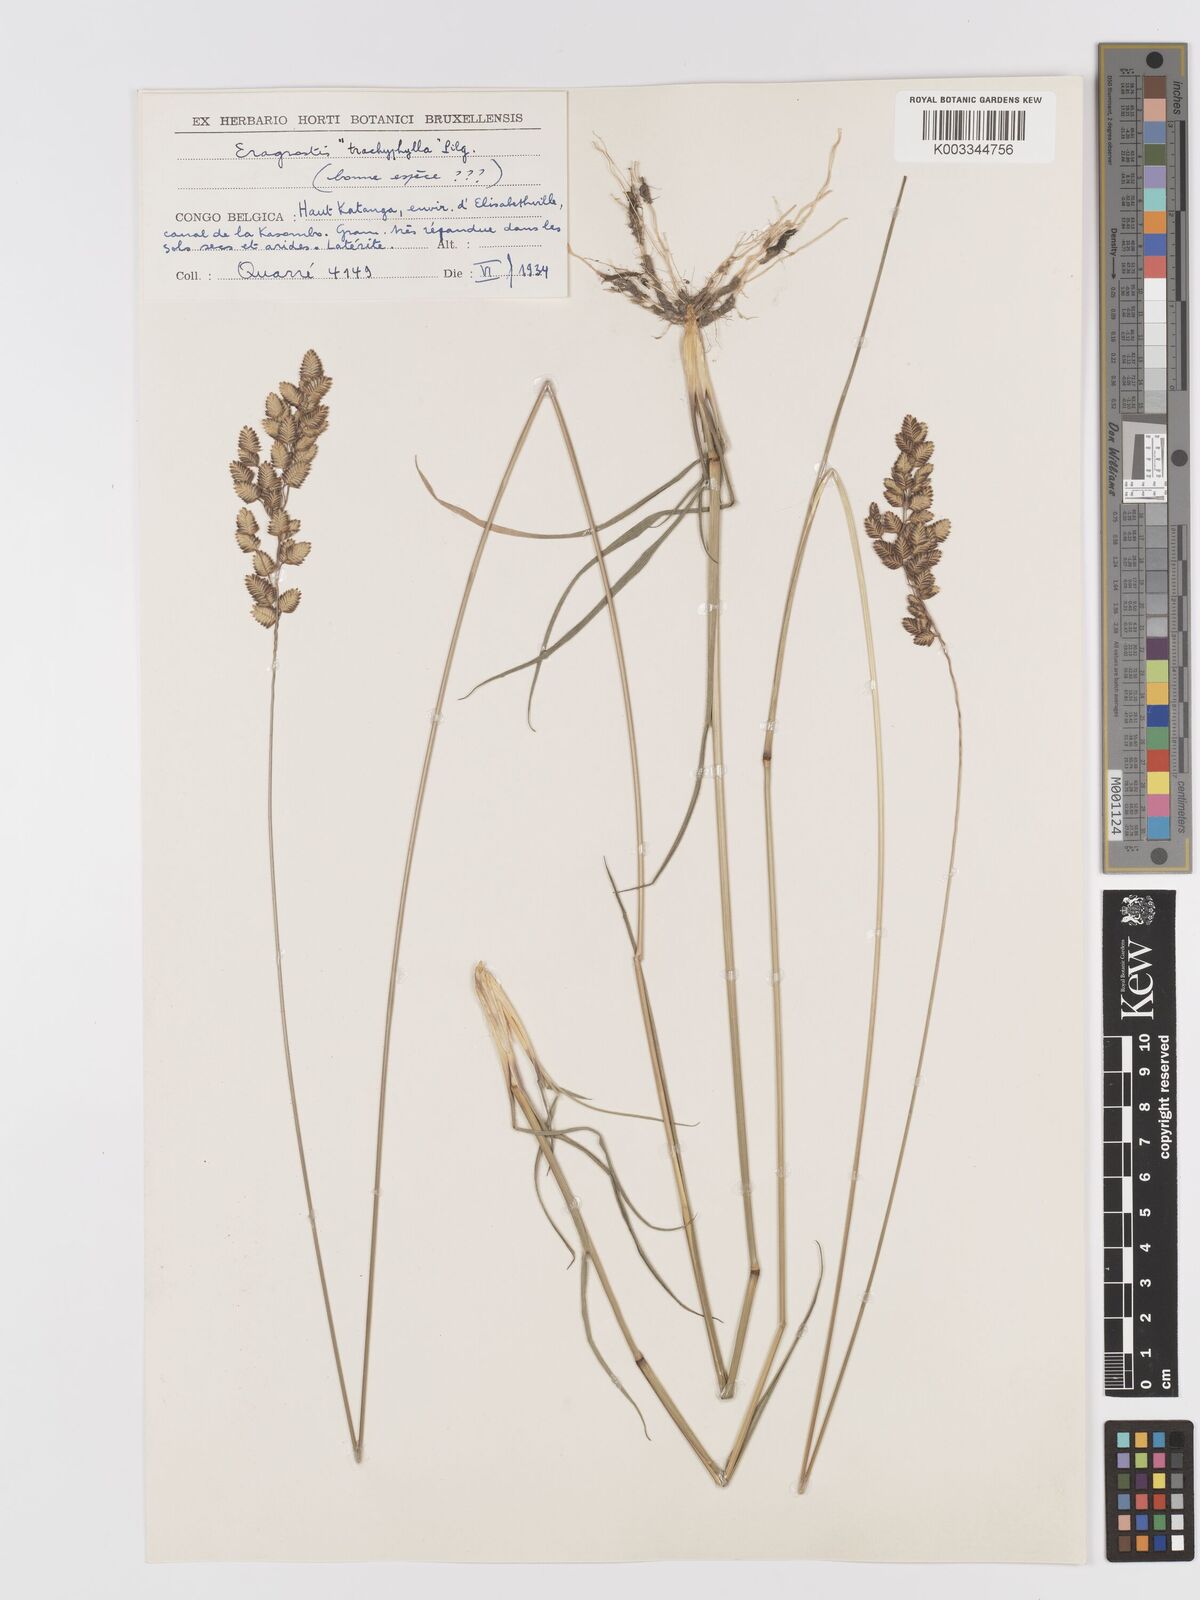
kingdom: Plantae
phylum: Tracheophyta
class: Liliopsida
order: Poales
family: Poaceae
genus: Eragrostis
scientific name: Eragrostis capensis
